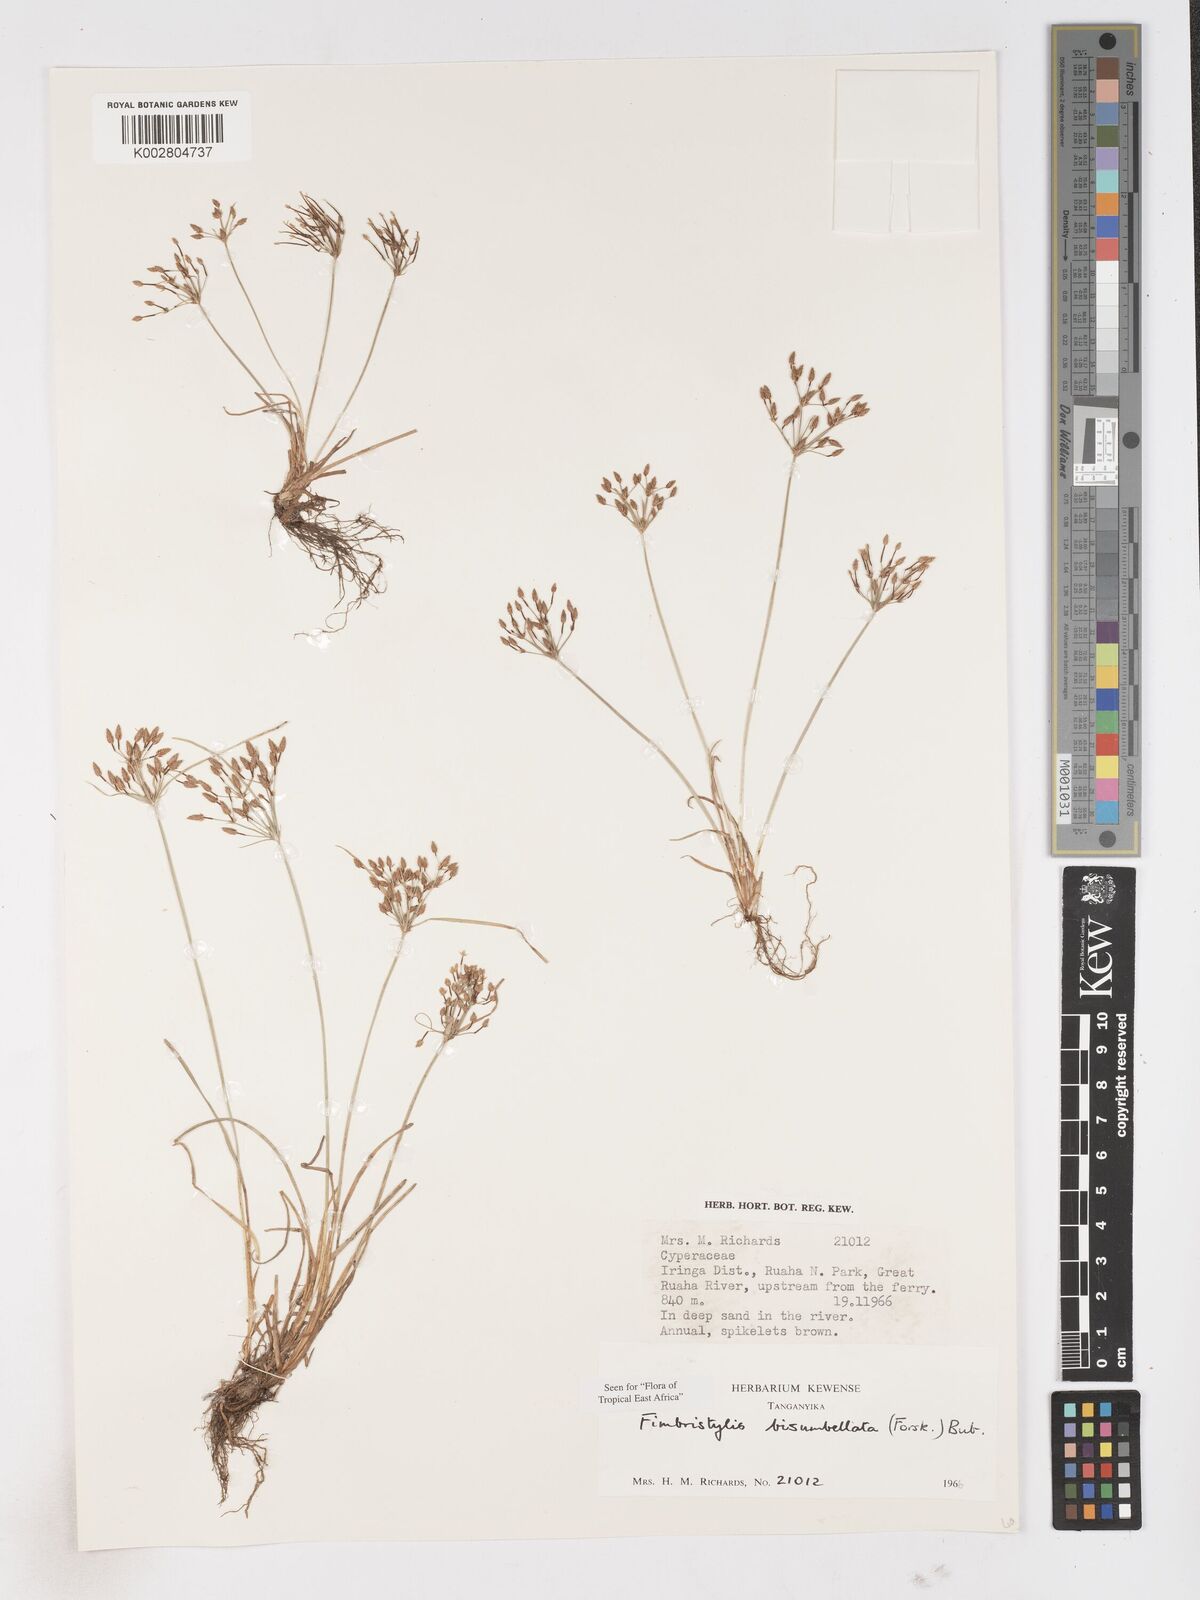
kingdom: Plantae
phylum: Tracheophyta
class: Liliopsida
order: Poales
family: Cyperaceae
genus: Fimbristylis
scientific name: Fimbristylis bisumbellata
